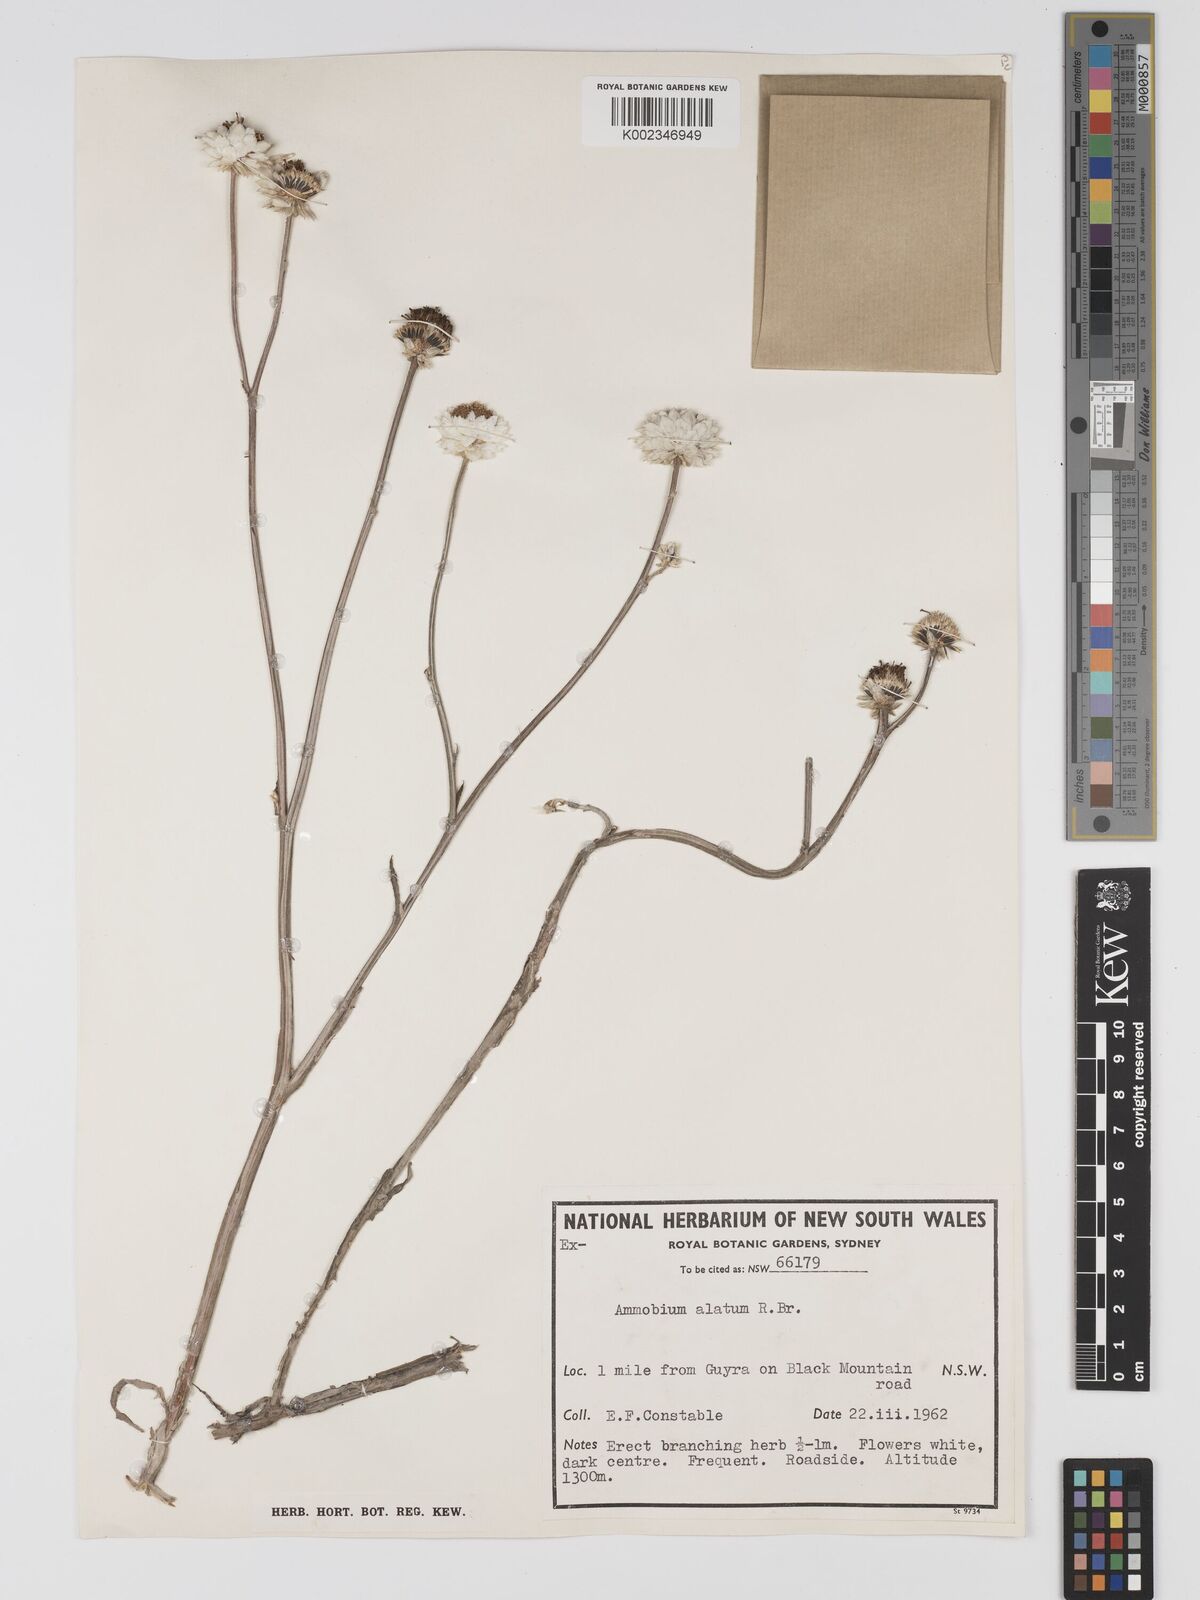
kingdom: Plantae
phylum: Tracheophyta
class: Magnoliopsida
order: Asterales
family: Asteraceae
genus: Ammobium
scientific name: Ammobium alatum
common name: Winged everlasting
